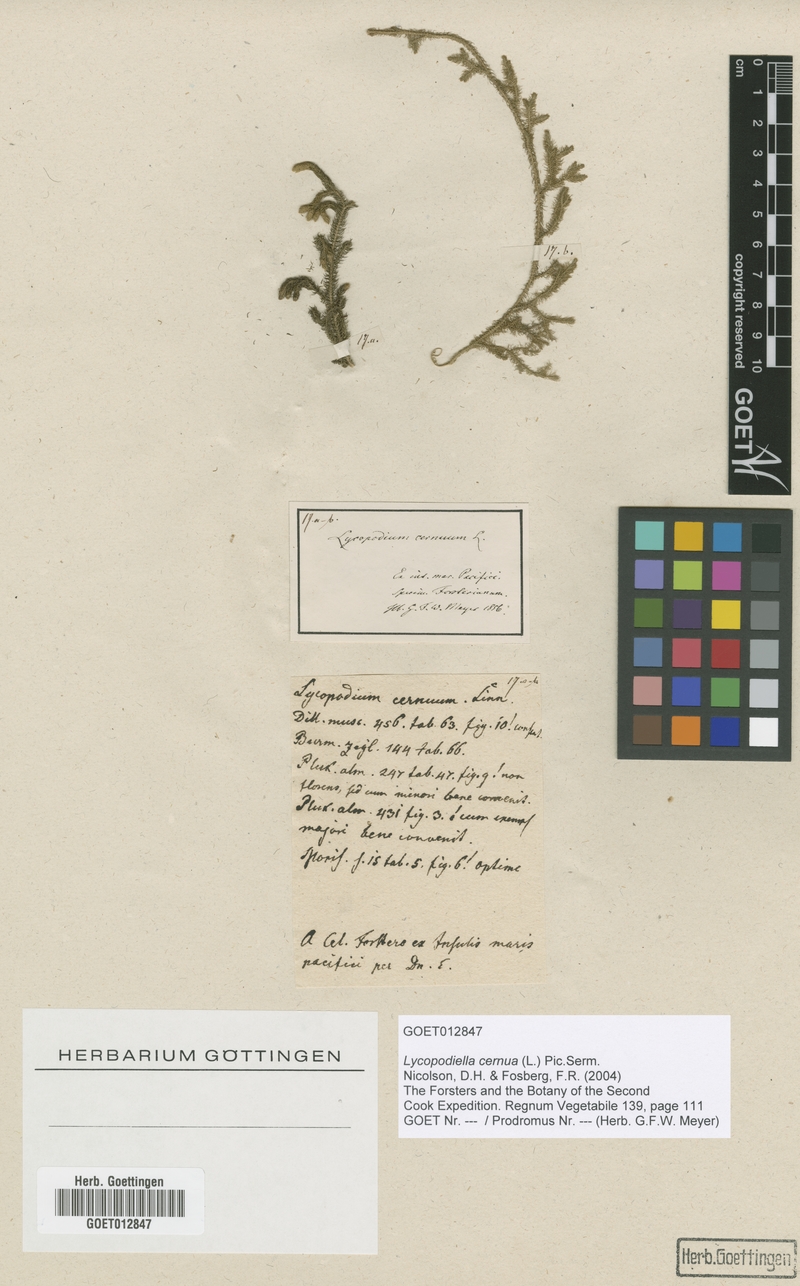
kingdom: Plantae
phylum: Tracheophyta
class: Lycopodiopsida
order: Lycopodiales
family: Lycopodiaceae
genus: Palhinhaea
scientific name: Palhinhaea cernua
